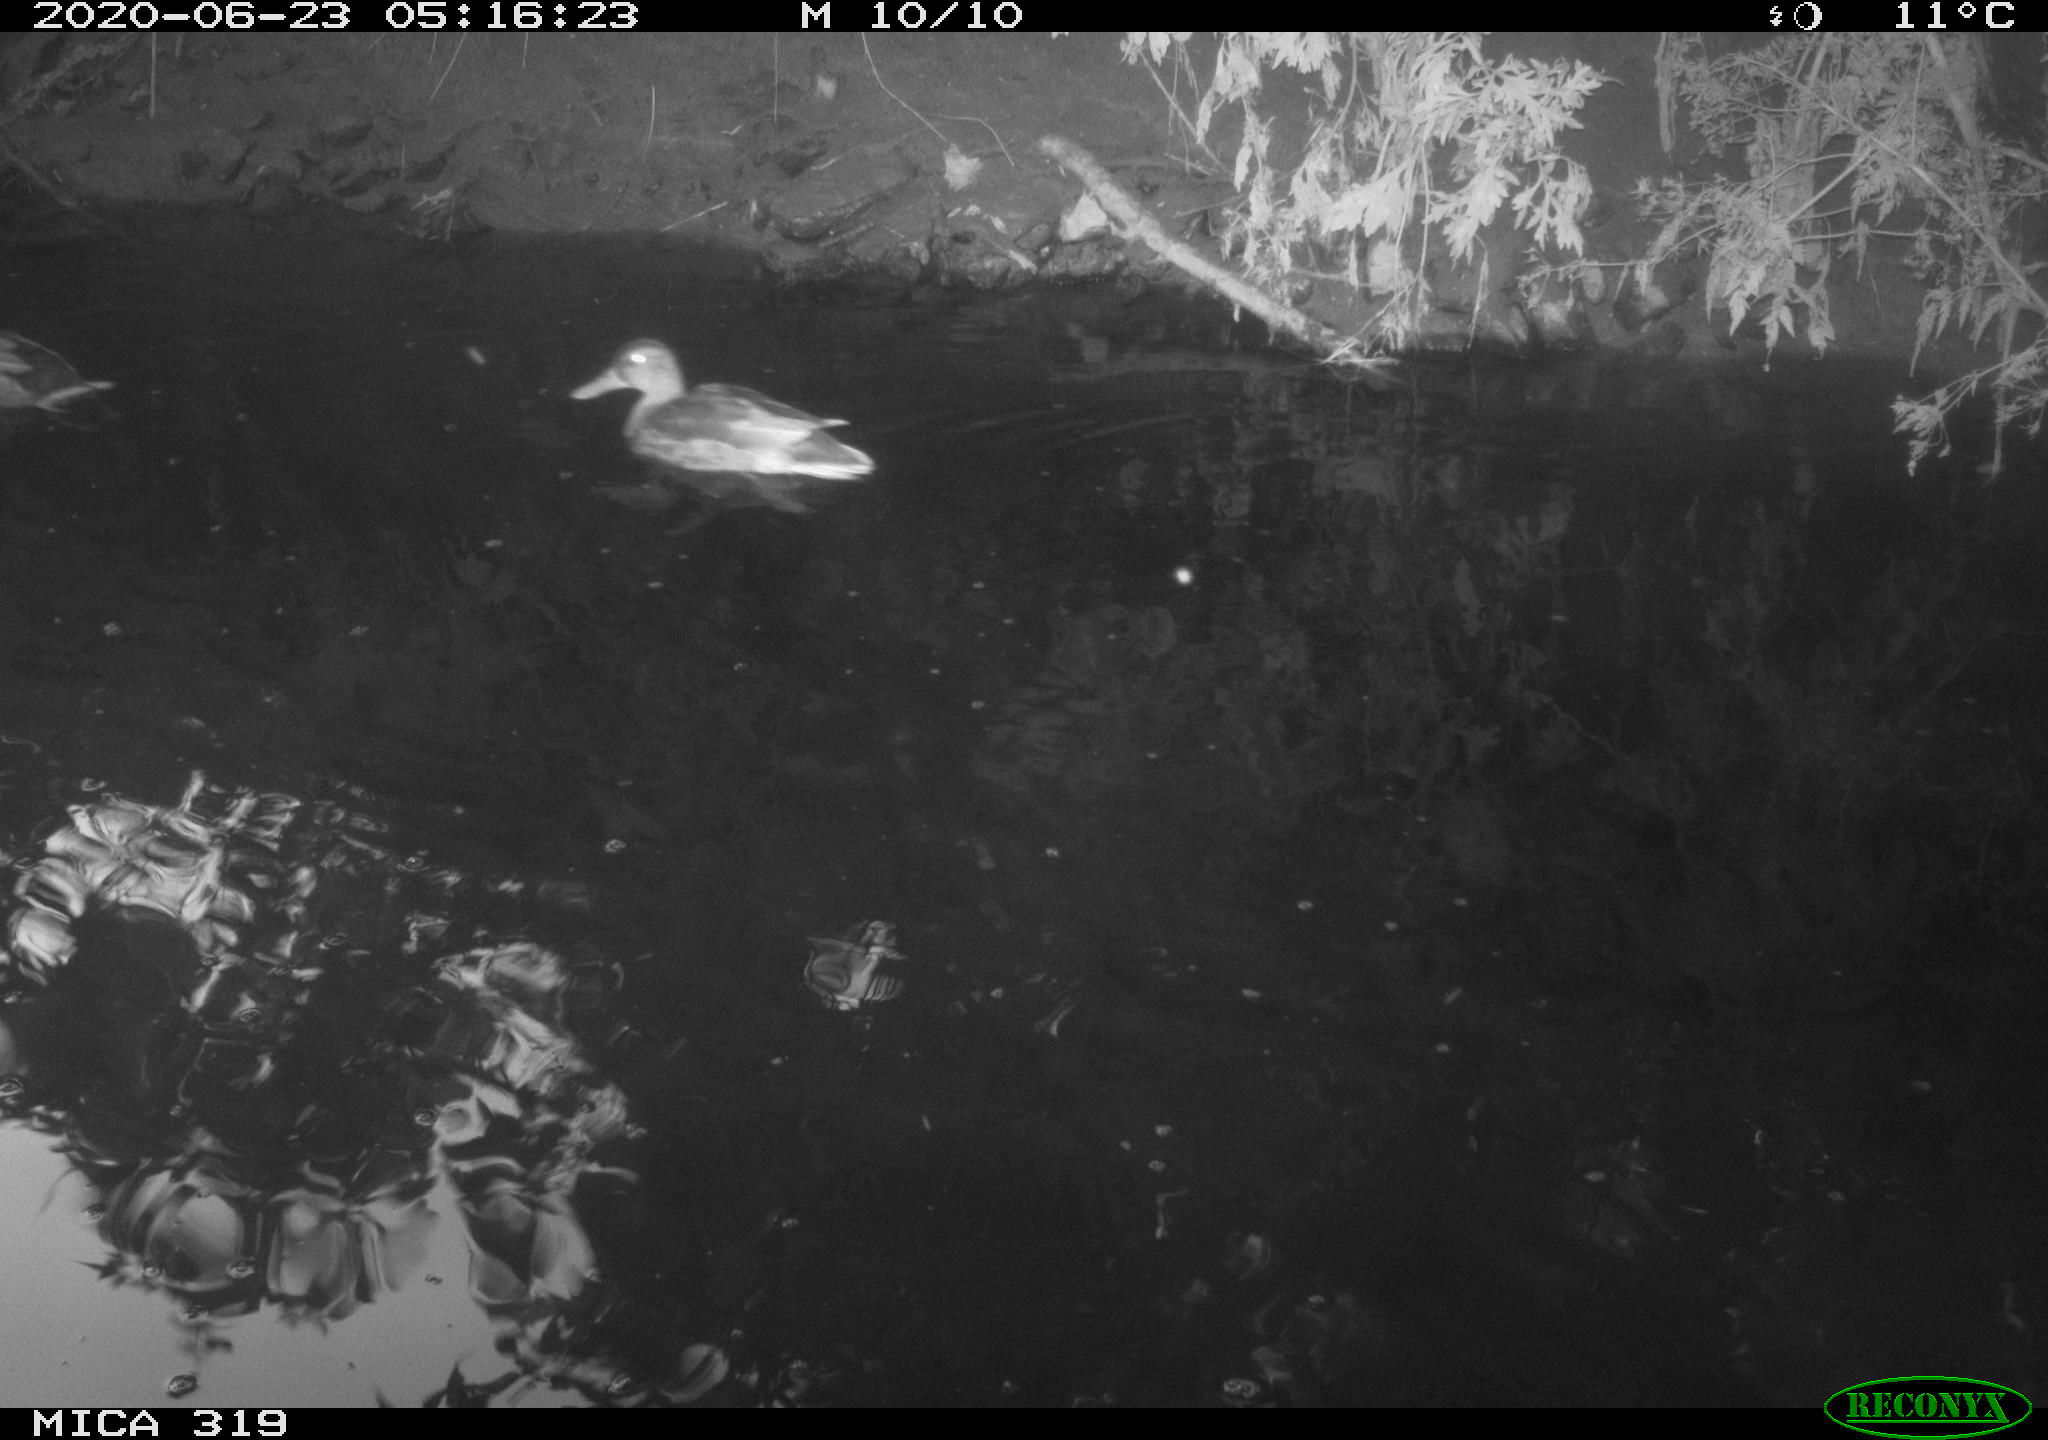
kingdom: Animalia
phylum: Chordata
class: Aves
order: Anseriformes
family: Anatidae
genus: Anas
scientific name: Anas platyrhynchos
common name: Mallard
